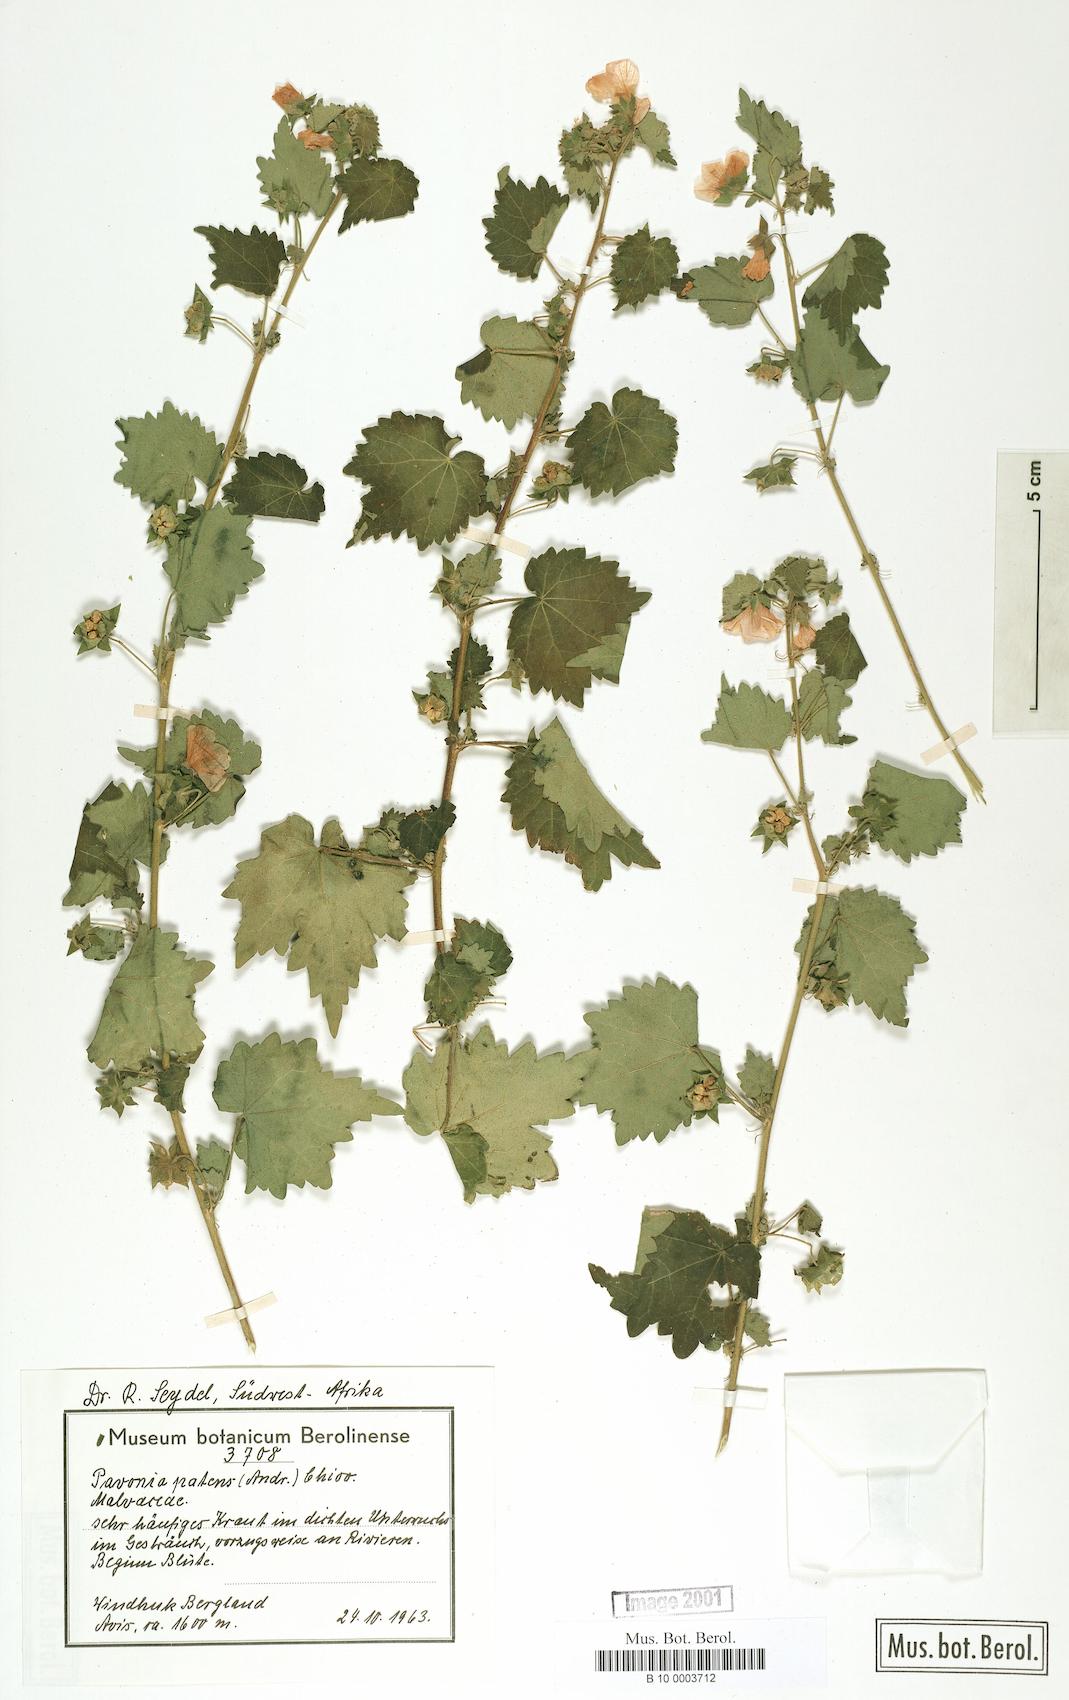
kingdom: Plantae
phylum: Tracheophyta
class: Magnoliopsida
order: Malvales
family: Malvaceae
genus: Abutilon
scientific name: Abutilon mauritianum
